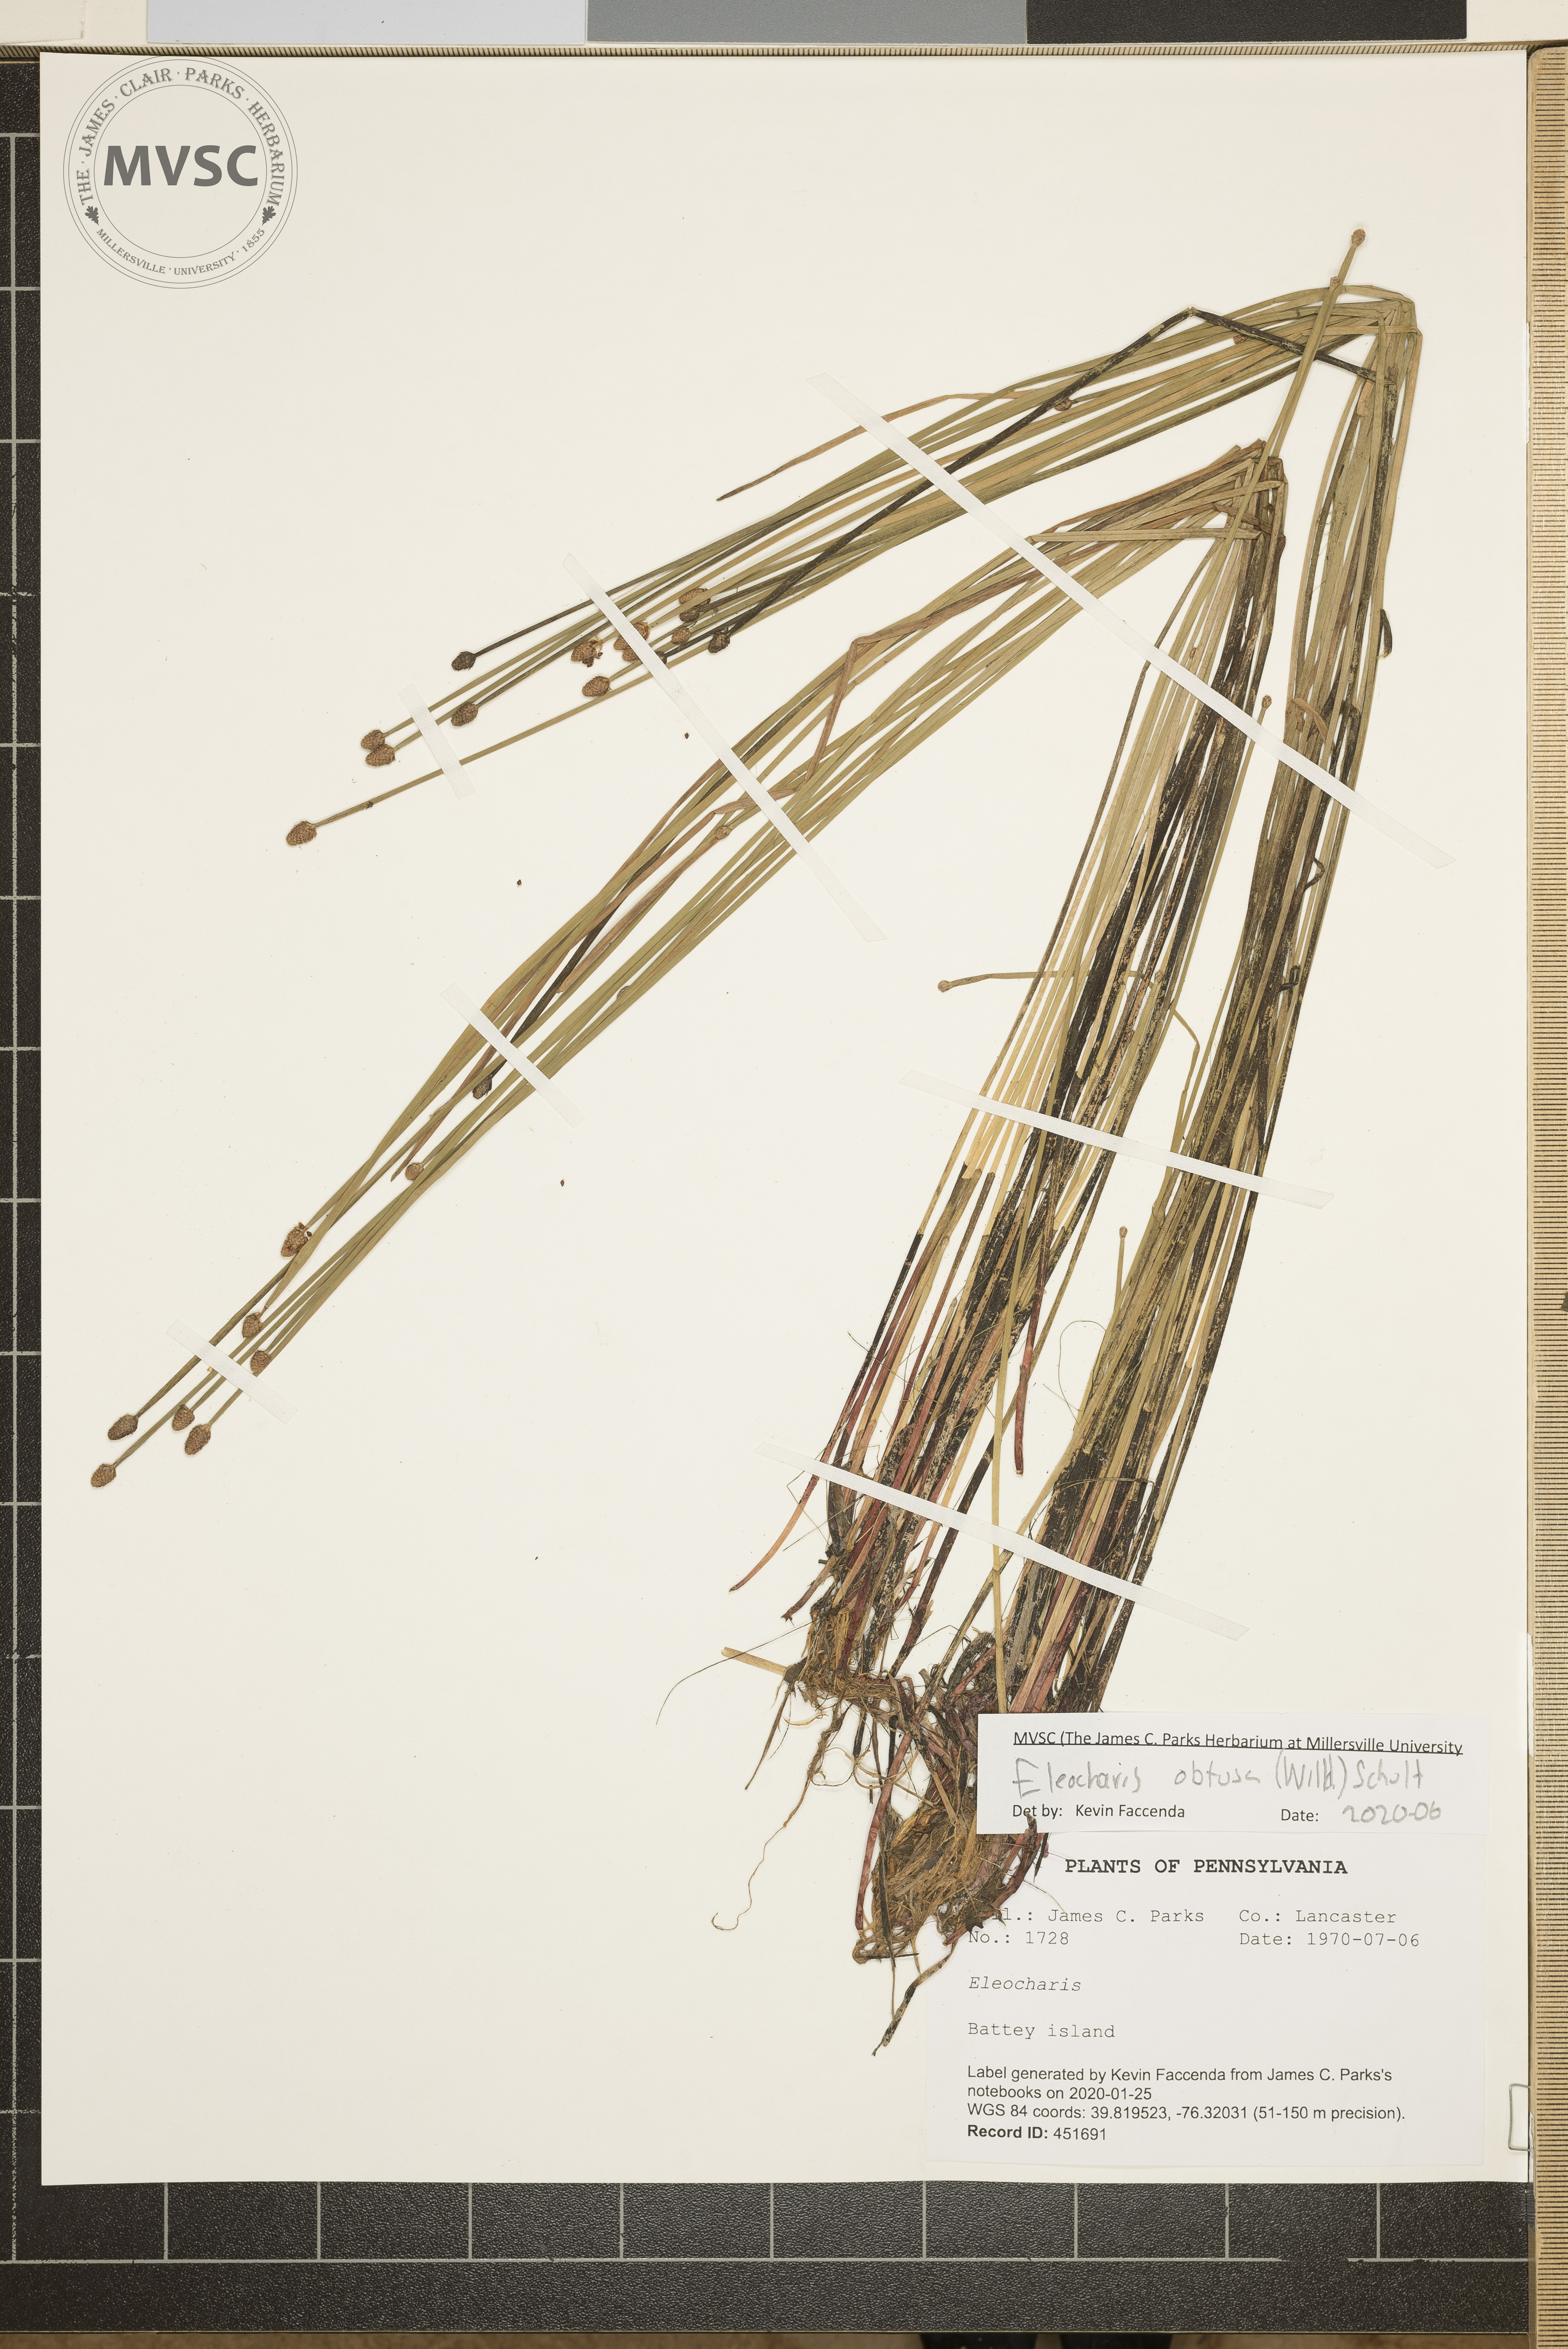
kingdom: Plantae
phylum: Tracheophyta
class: Liliopsida
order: Poales
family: Cyperaceae
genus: Eleocharis
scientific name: Eleocharis obtusa
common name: Blunt spikerush
